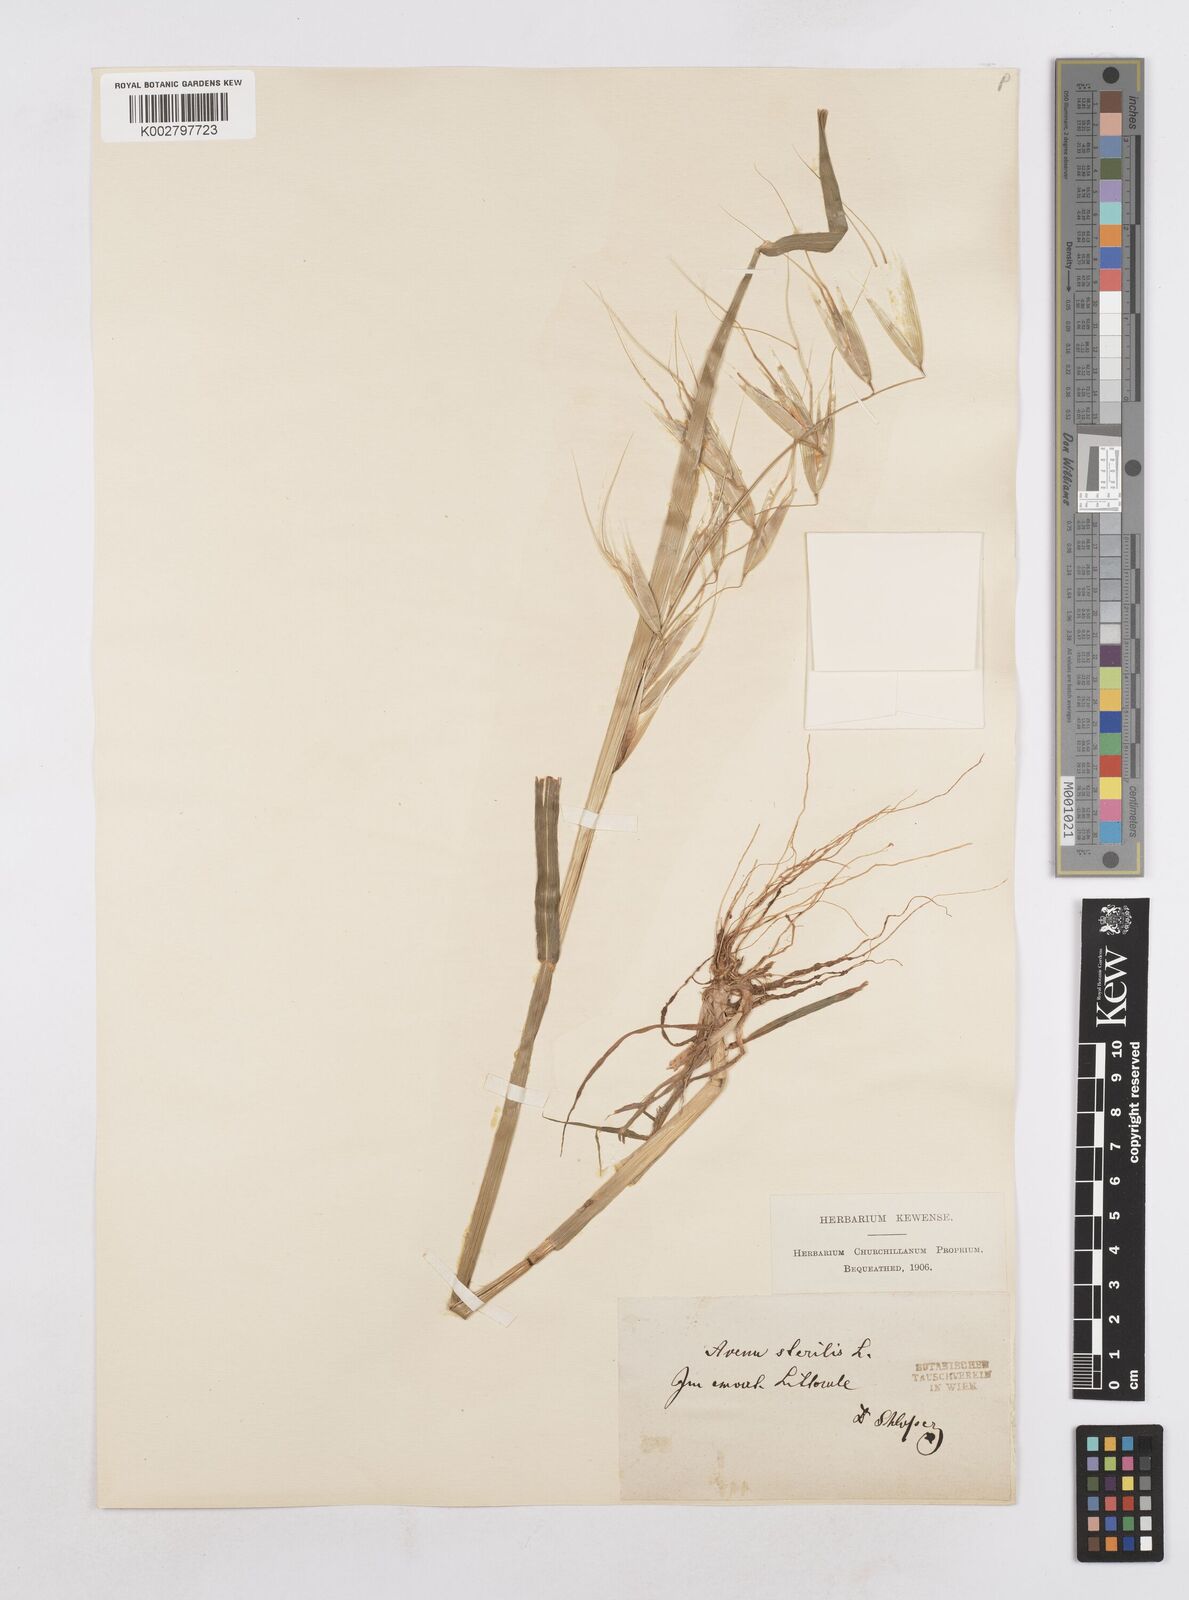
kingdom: Plantae
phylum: Tracheophyta
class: Liliopsida
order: Poales
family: Poaceae
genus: Avena
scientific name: Avena sterilis
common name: Animated oat
